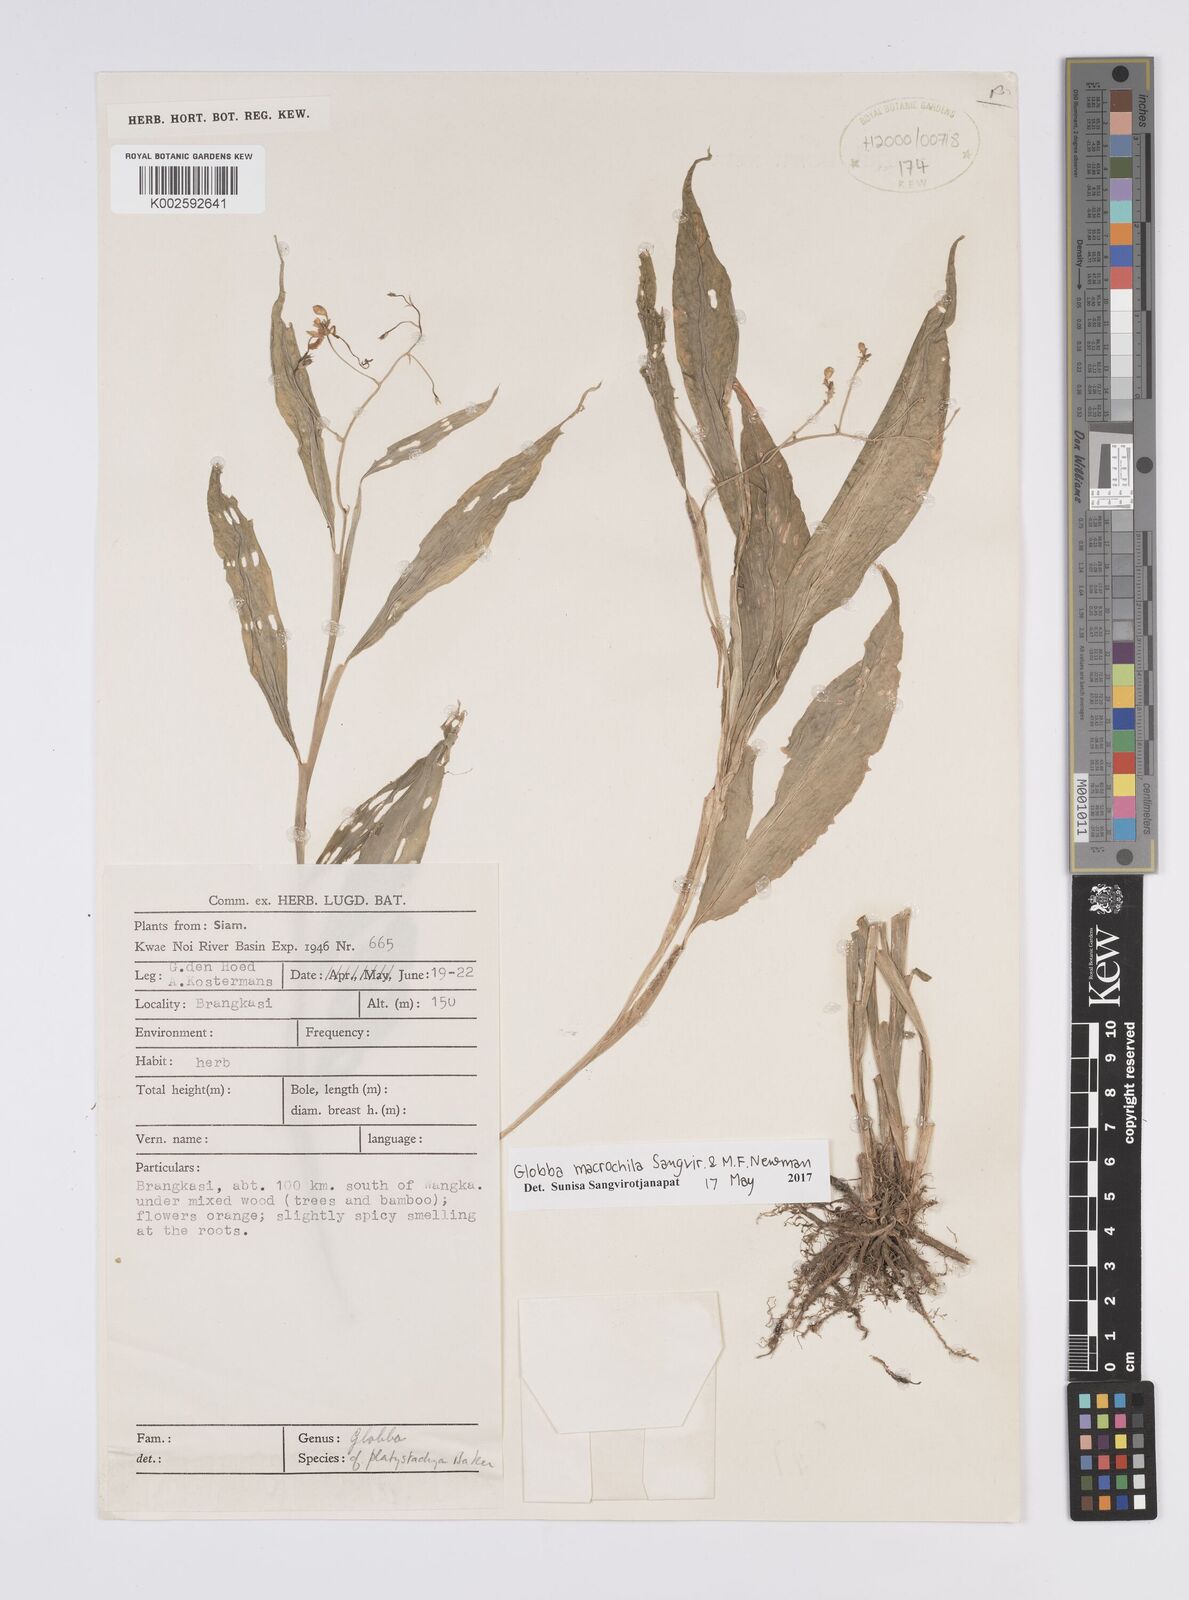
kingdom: Plantae
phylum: Tracheophyta
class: Liliopsida
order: Zingiberales
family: Zingiberaceae
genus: Globba
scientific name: Globba macrochila
